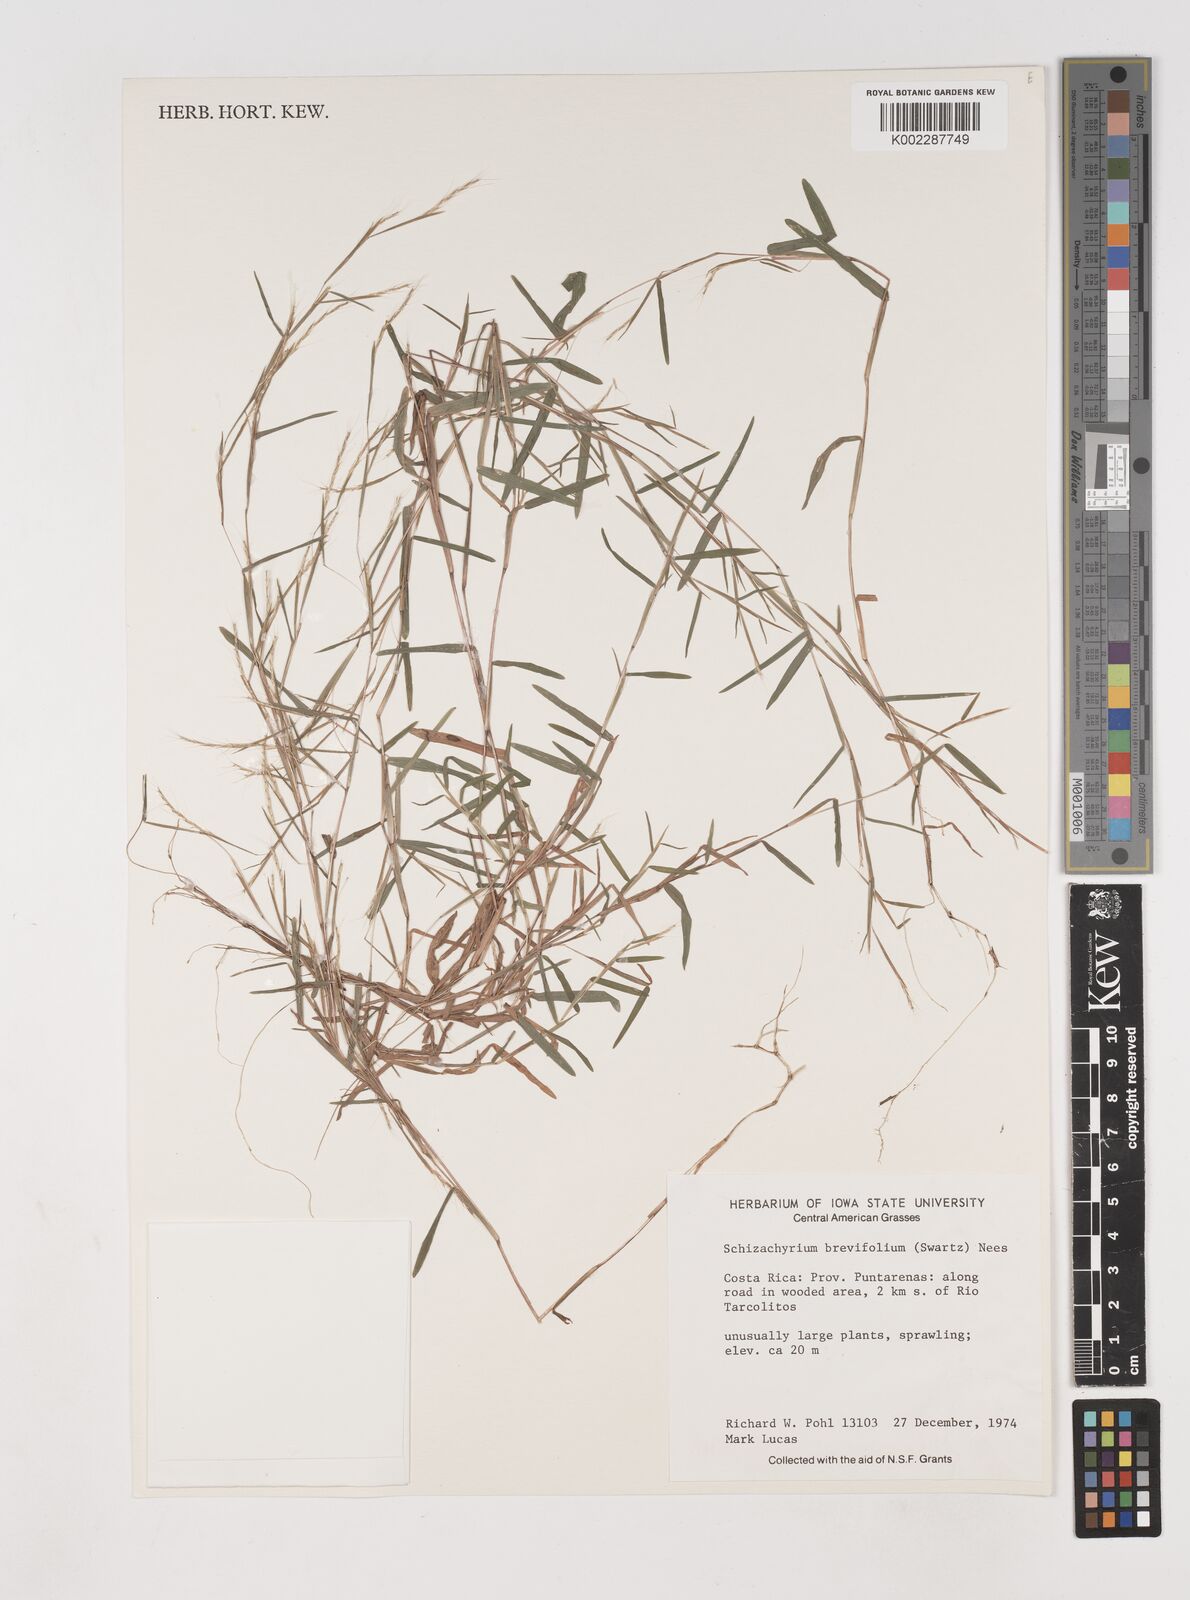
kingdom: Plantae
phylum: Tracheophyta
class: Liliopsida
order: Poales
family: Poaceae
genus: Schizachyrium
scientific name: Schizachyrium brevifolium
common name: Serillo dulce
